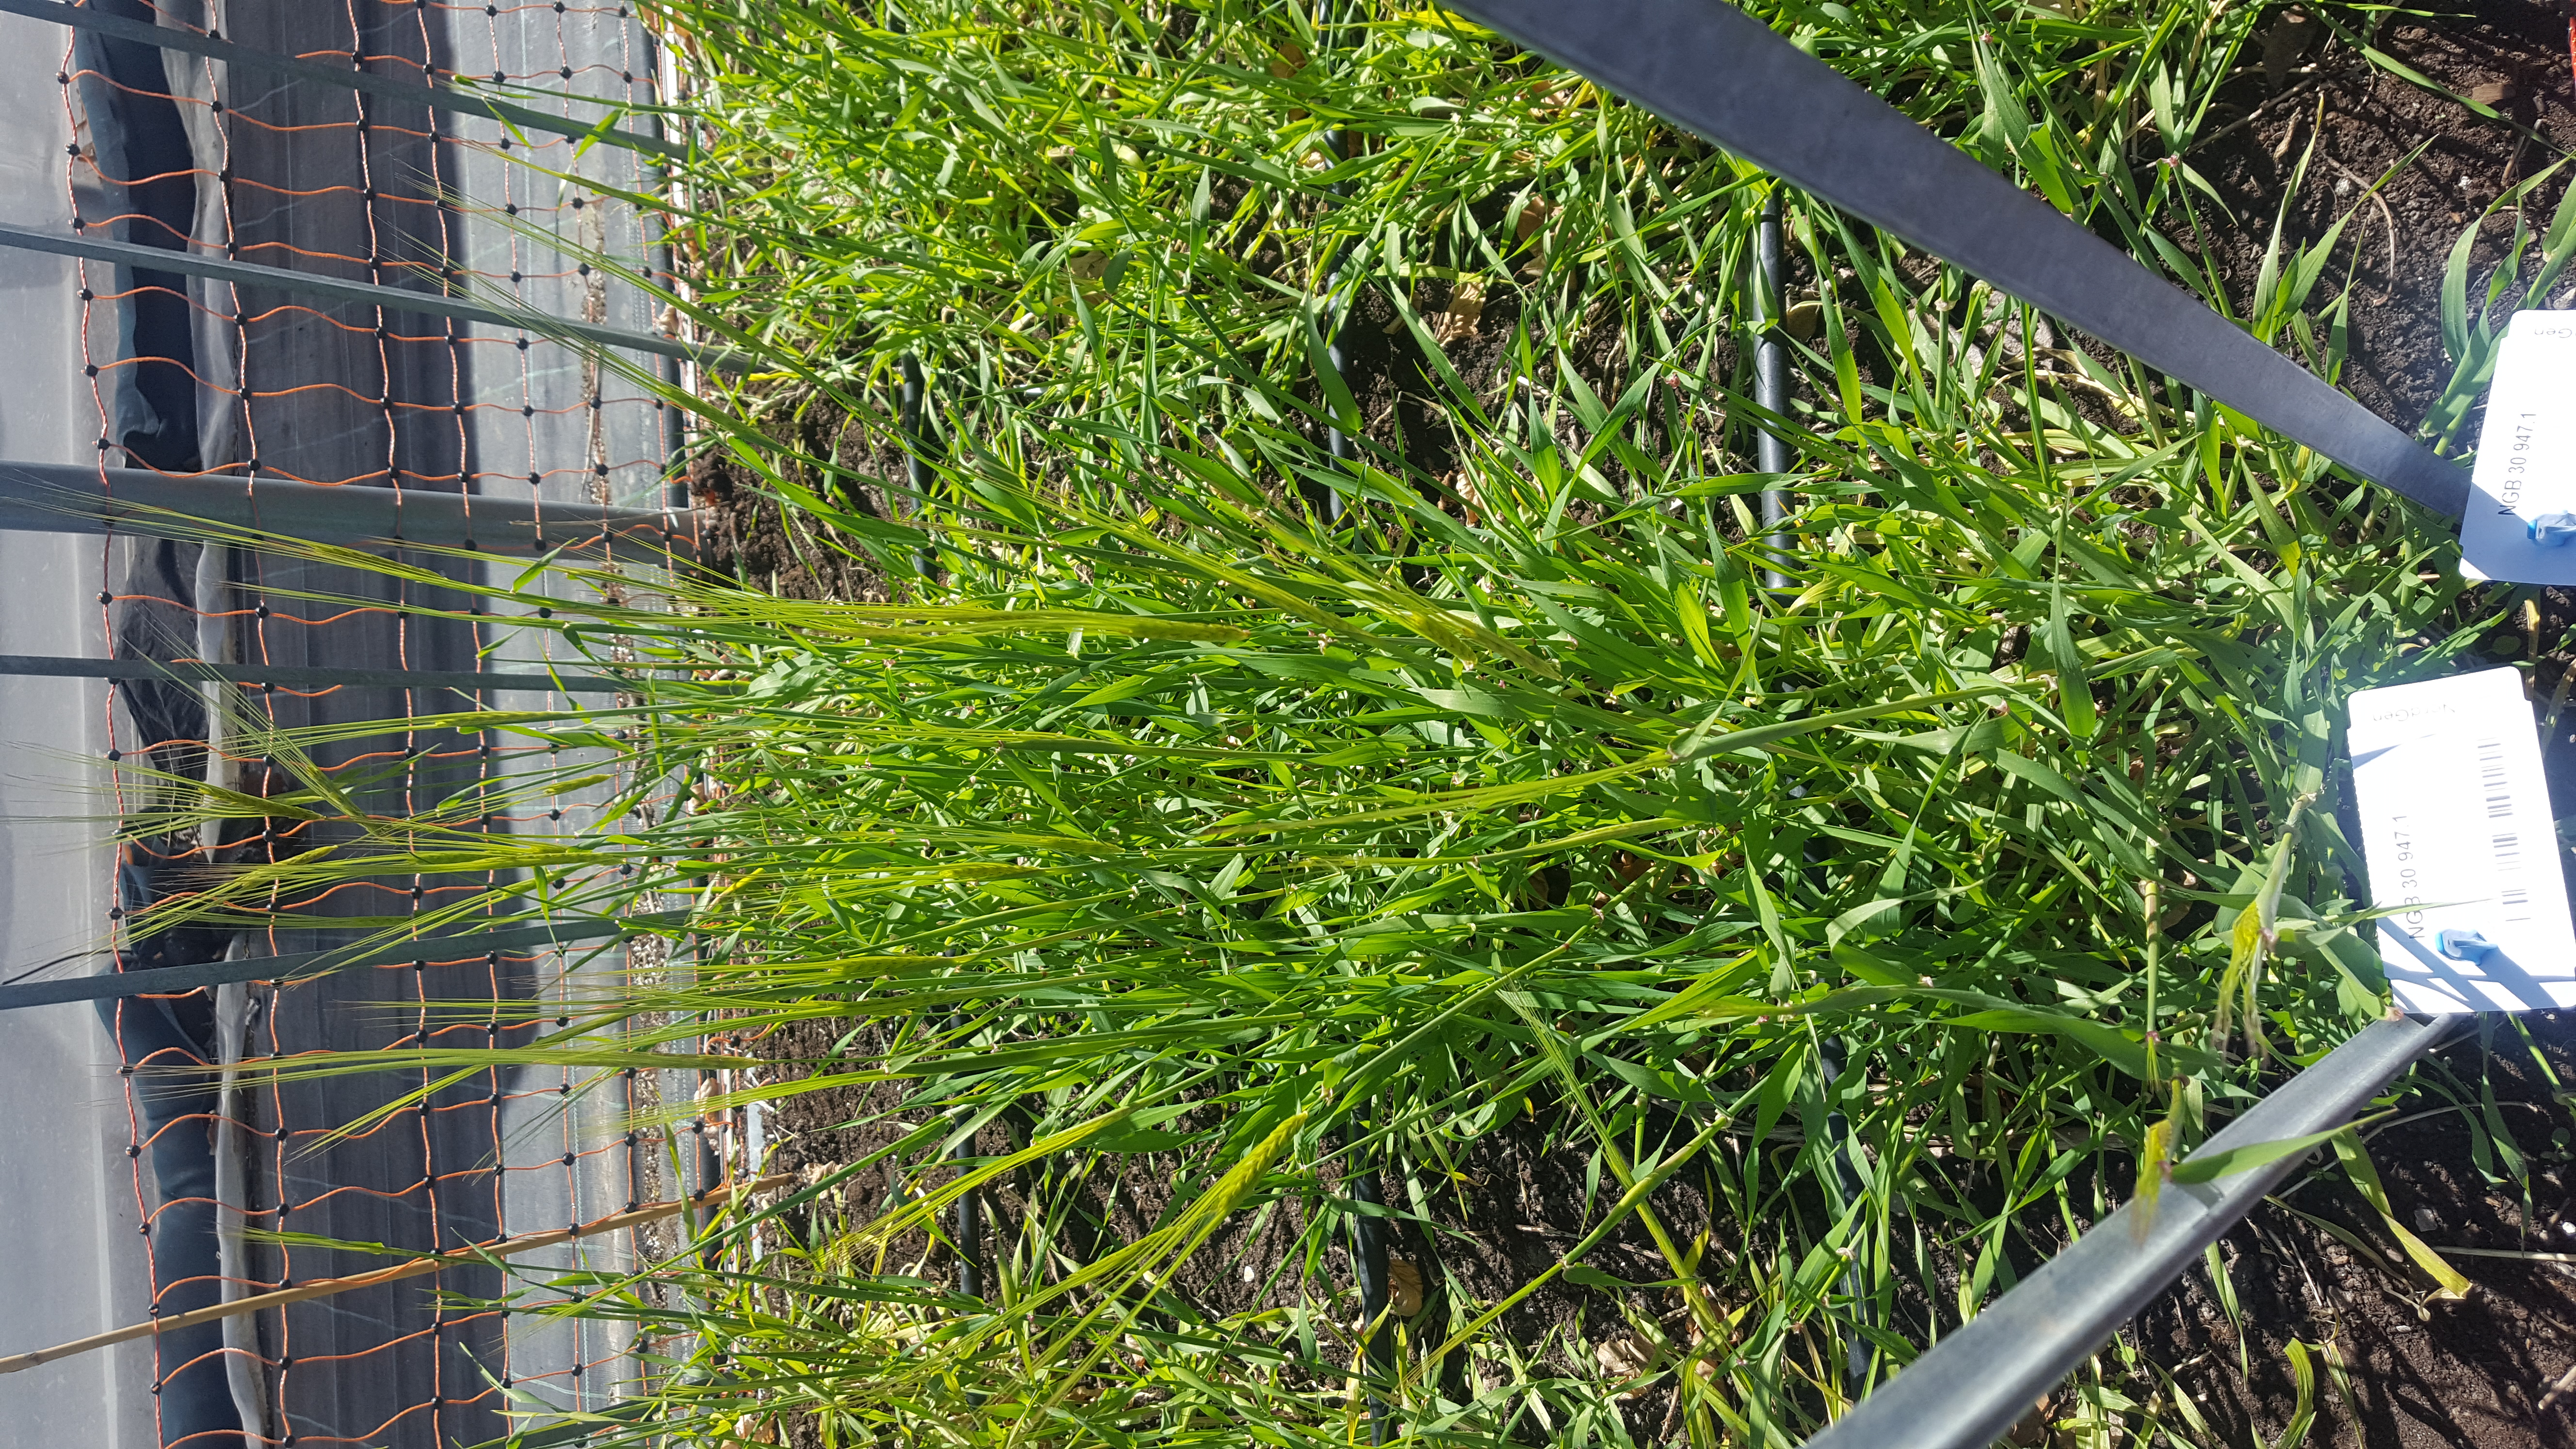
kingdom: Plantae
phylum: Tracheophyta
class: Liliopsida
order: Poales
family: Poaceae
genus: Hordeum
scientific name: Hordeum spontaneum
